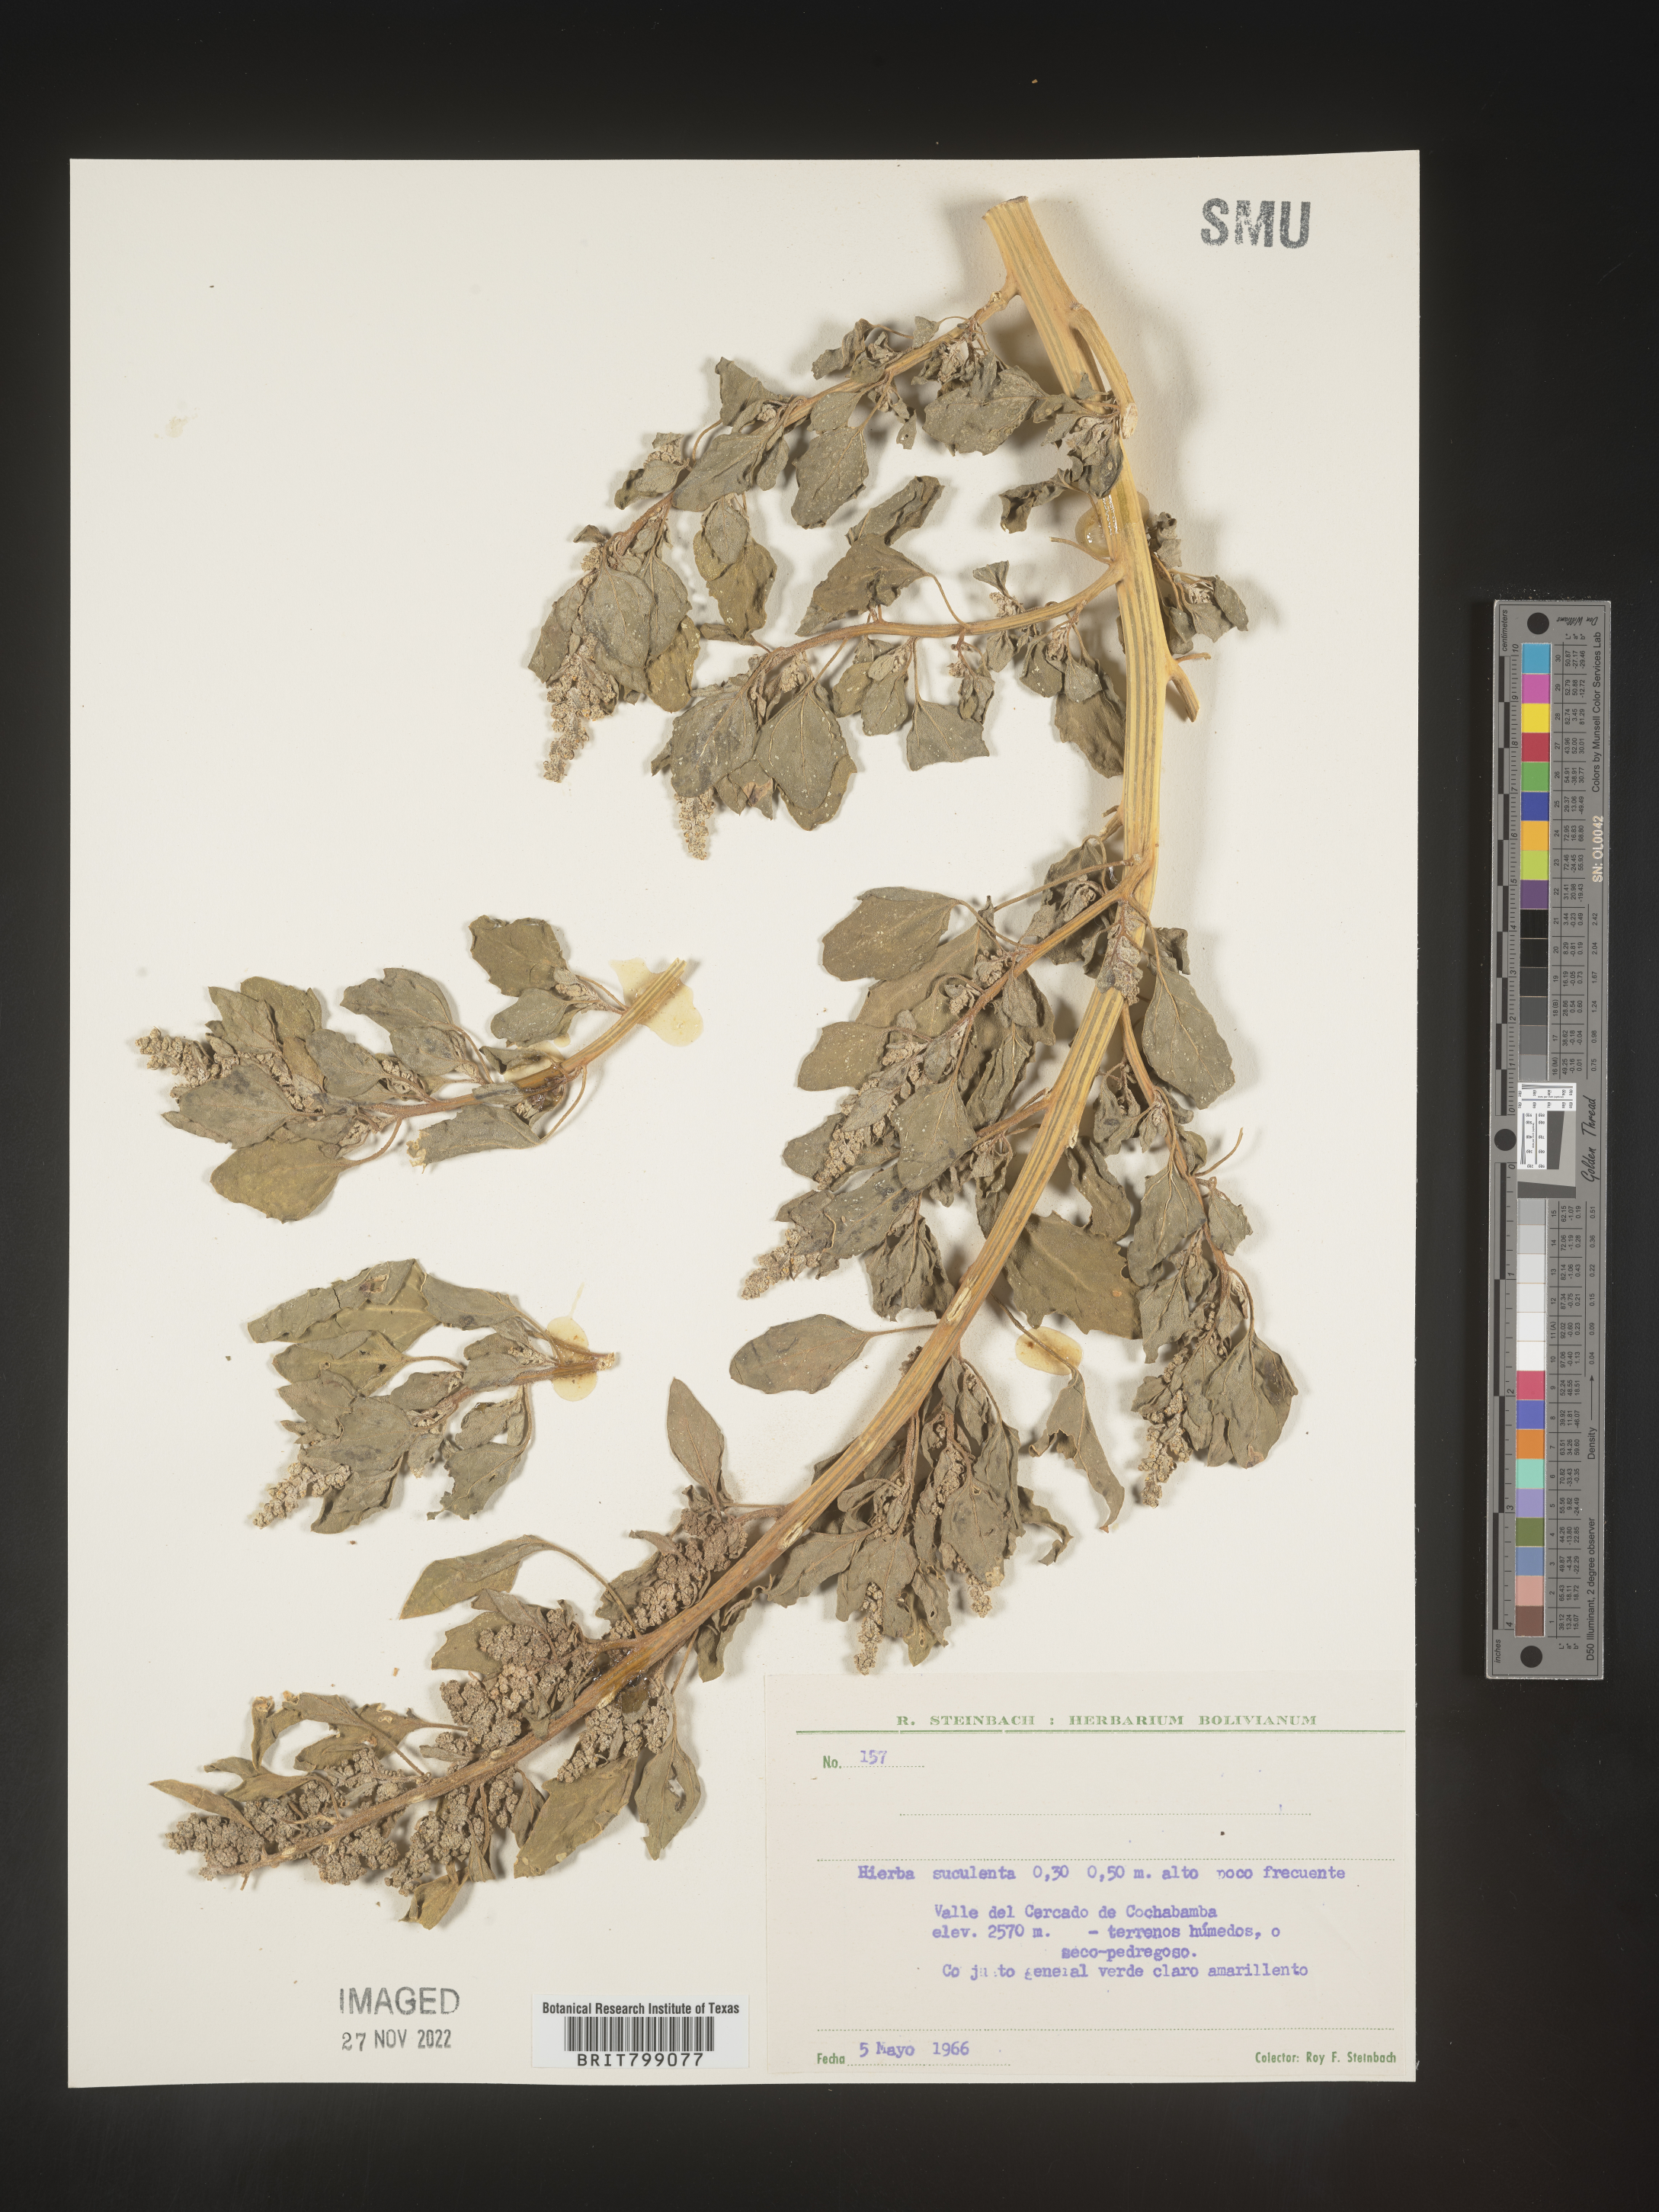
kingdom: Plantae
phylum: Tracheophyta
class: Magnoliopsida
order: Caryophyllales
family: Amaranthaceae
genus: Chenopodium
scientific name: Chenopodium
